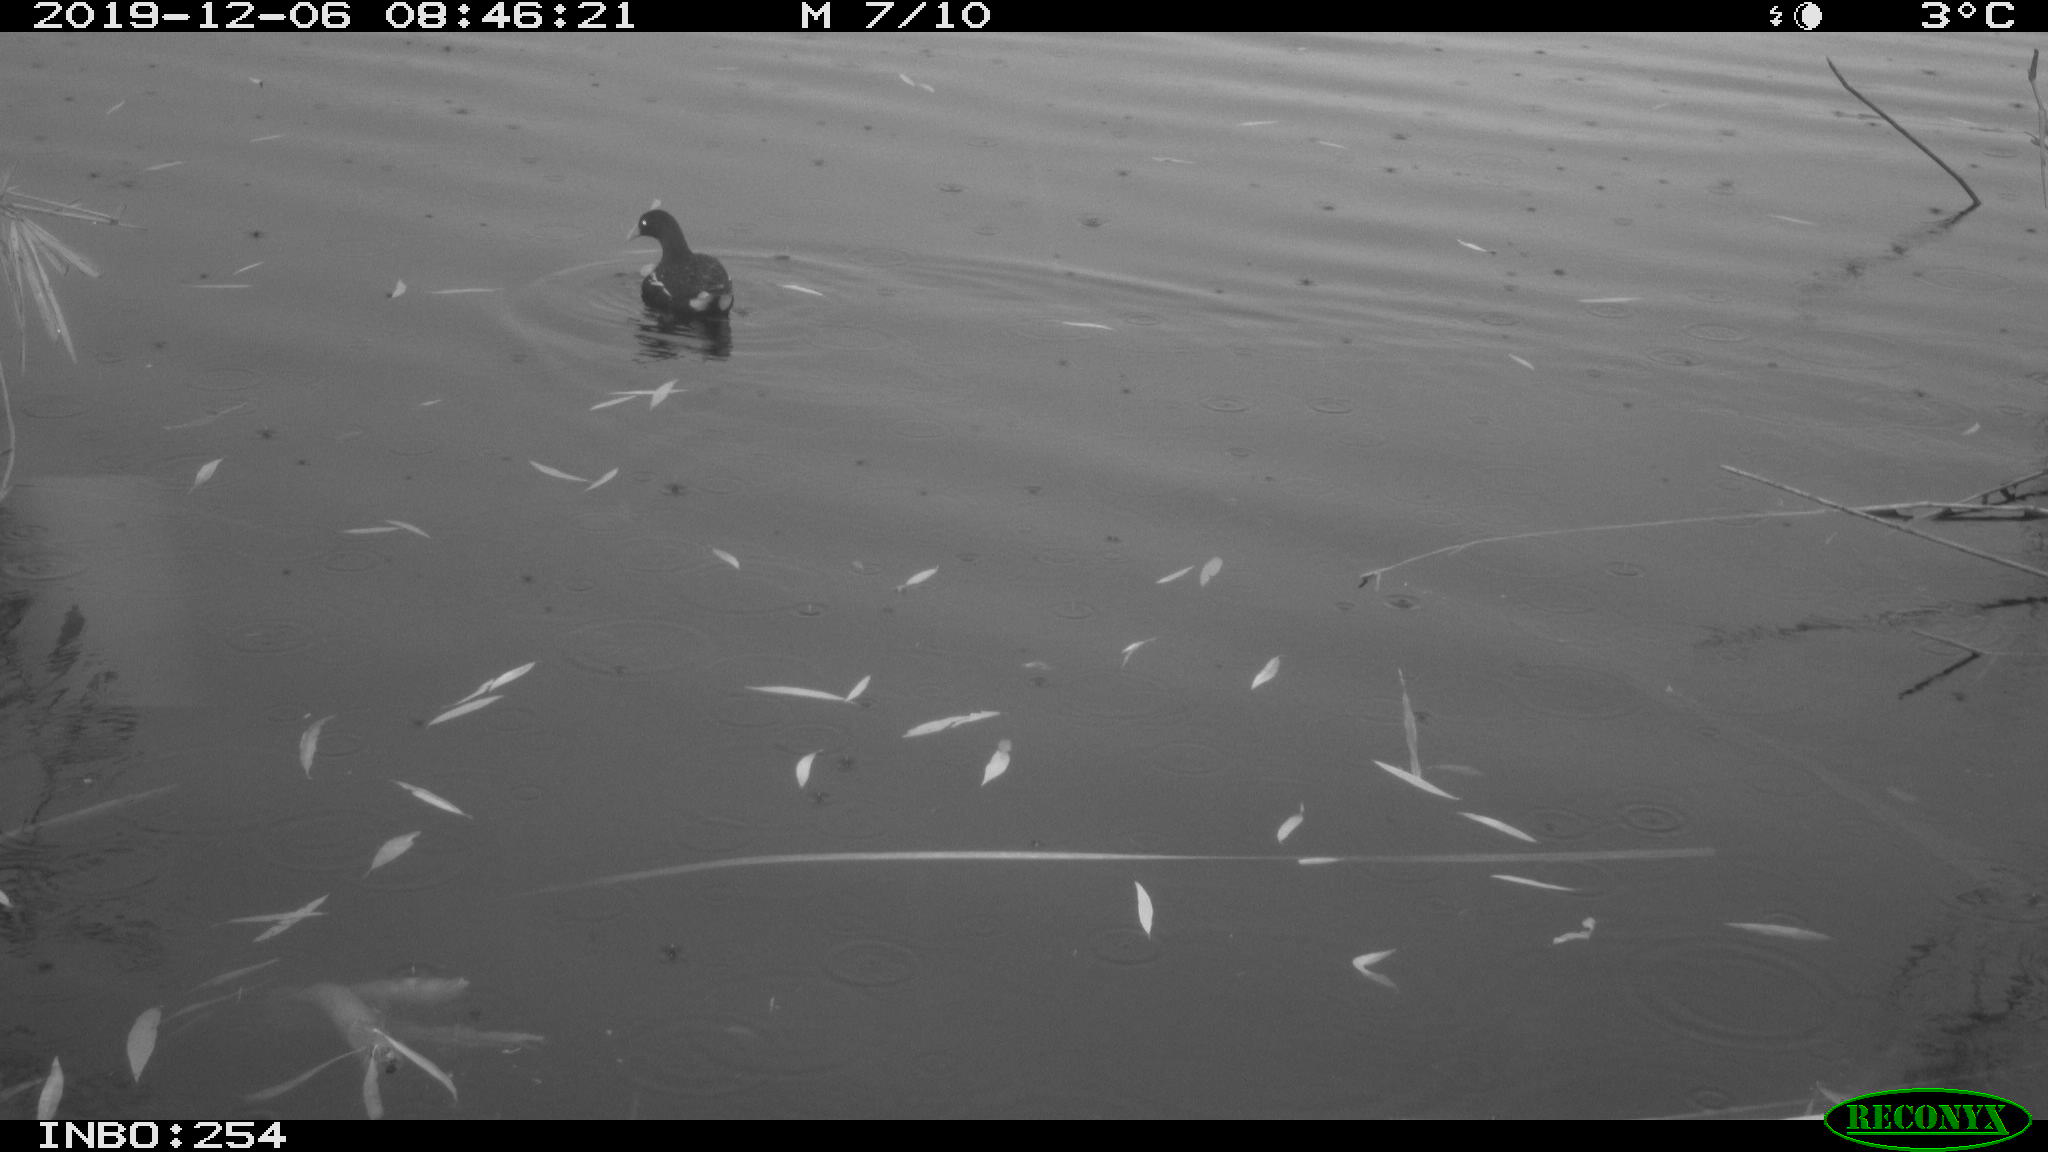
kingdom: Animalia
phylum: Chordata
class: Aves
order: Gruiformes
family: Rallidae
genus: Gallinula
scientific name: Gallinula chloropus
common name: Common moorhen
